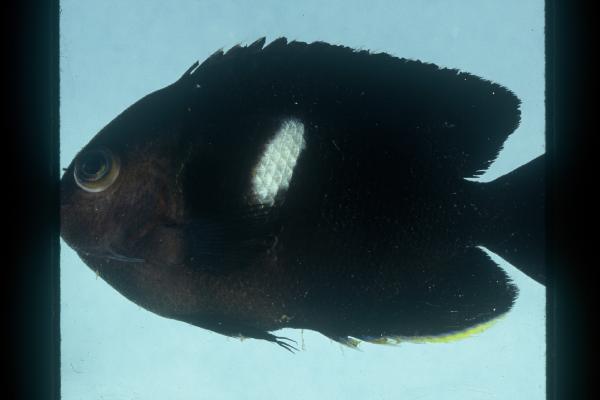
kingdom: Animalia
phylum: Chordata
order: Perciformes
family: Pomacanthidae
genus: Centropyge
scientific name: Centropyge tibicen
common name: Keyhole angelfish
